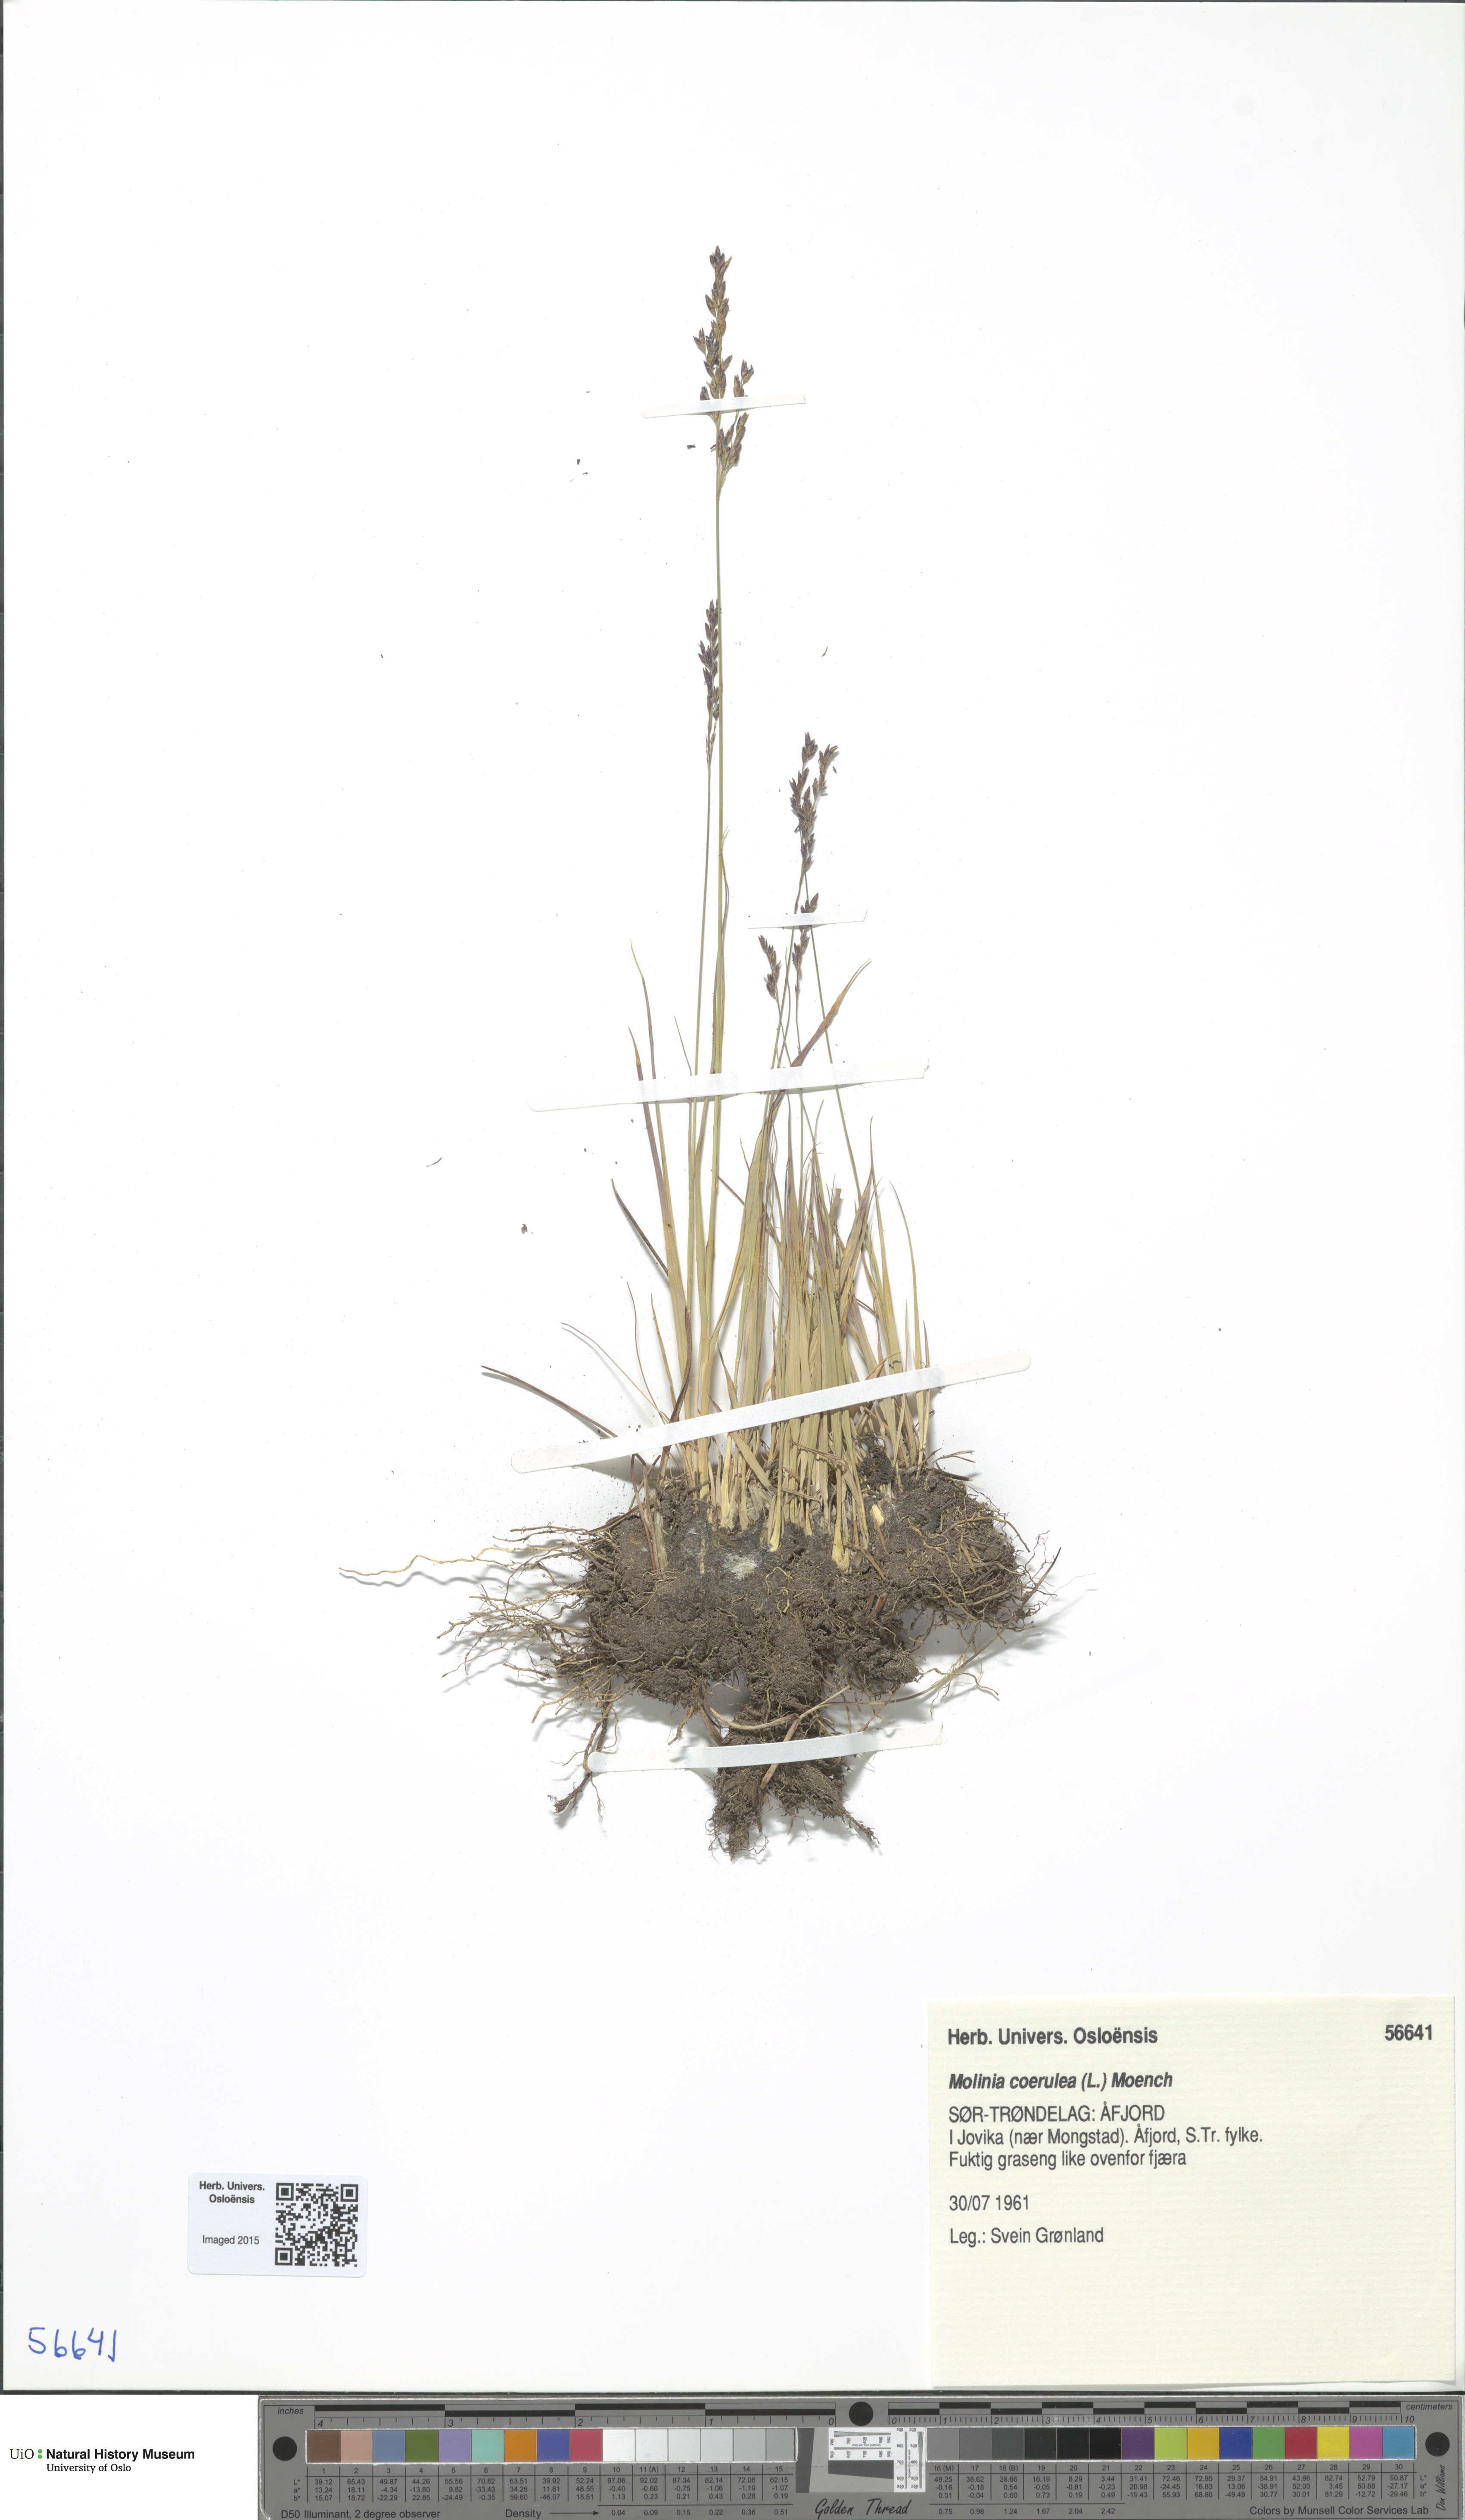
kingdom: Plantae
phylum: Tracheophyta
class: Liliopsida
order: Poales
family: Poaceae
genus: Molinia
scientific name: Molinia caerulea
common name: Purple moor-grass
